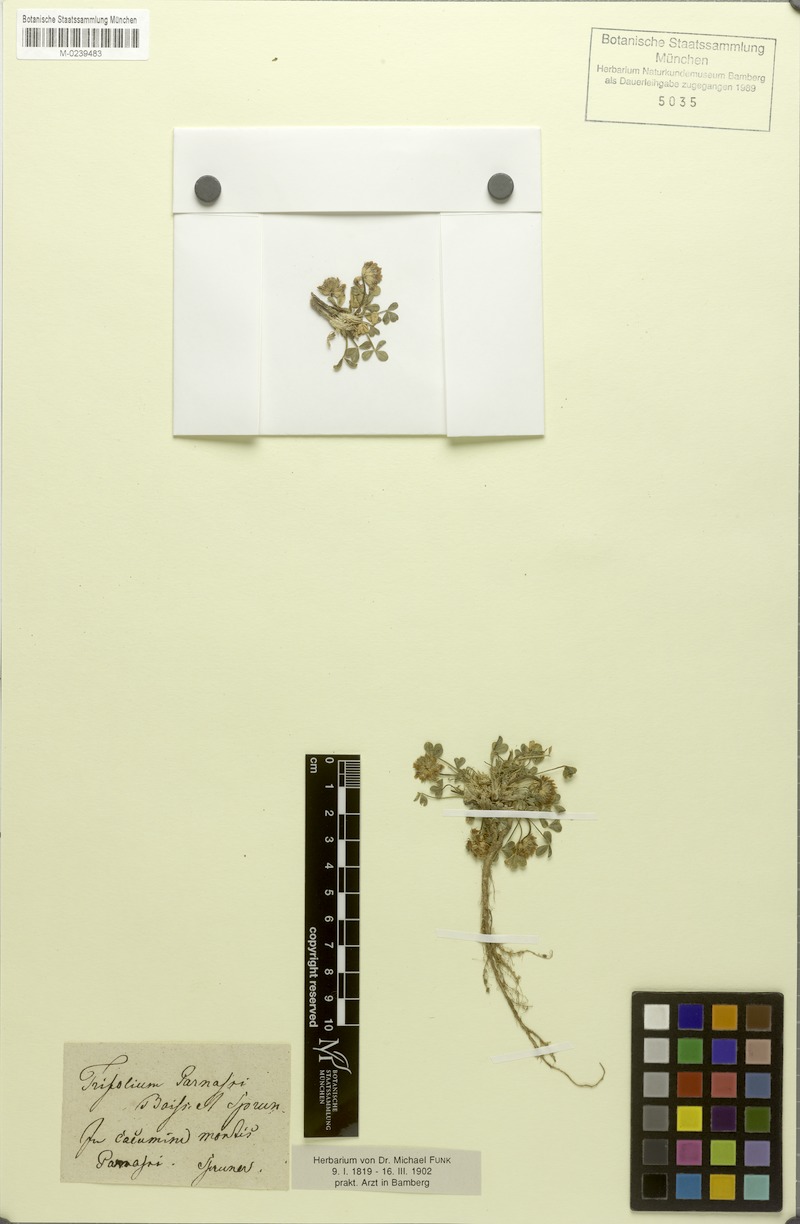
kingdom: Plantae
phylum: Tracheophyta
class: Magnoliopsida
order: Fabales
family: Fabaceae
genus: Trifolium
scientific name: Trifolium parnassi
